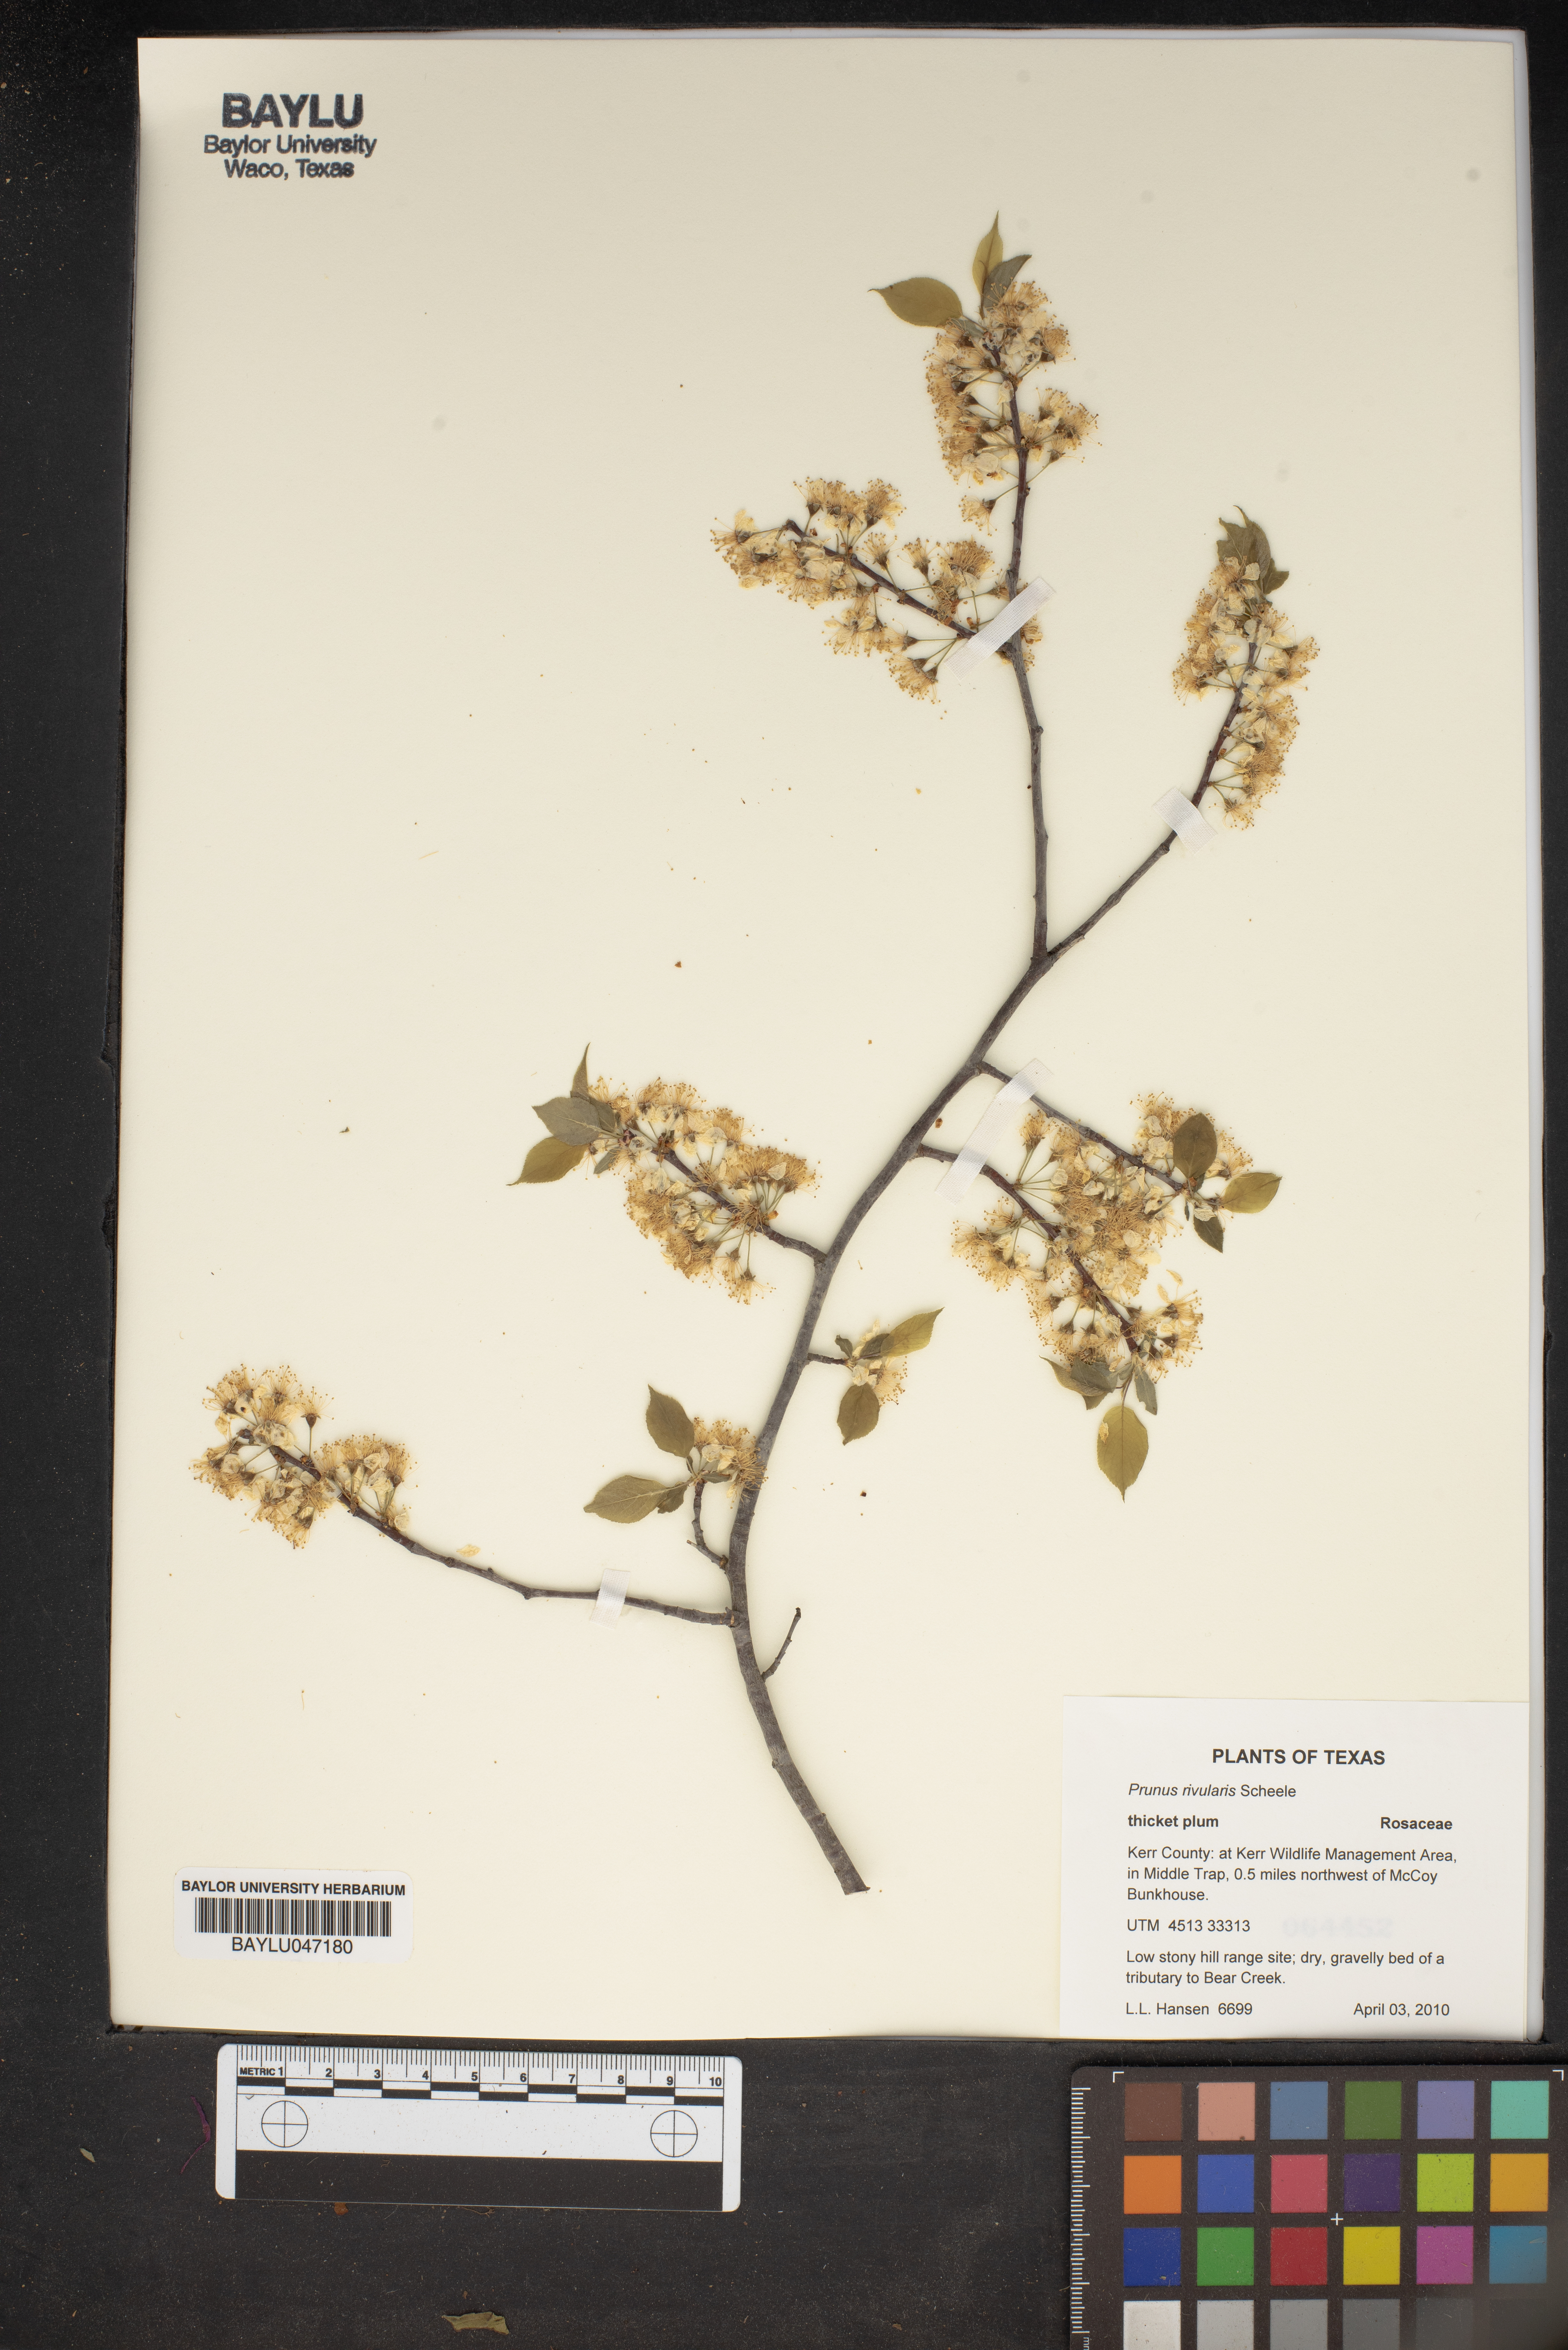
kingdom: Plantae
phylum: Tracheophyta
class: Magnoliopsida
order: Rosales
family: Rosaceae
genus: Prunus
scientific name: Prunus rivularis
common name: Creek plum
